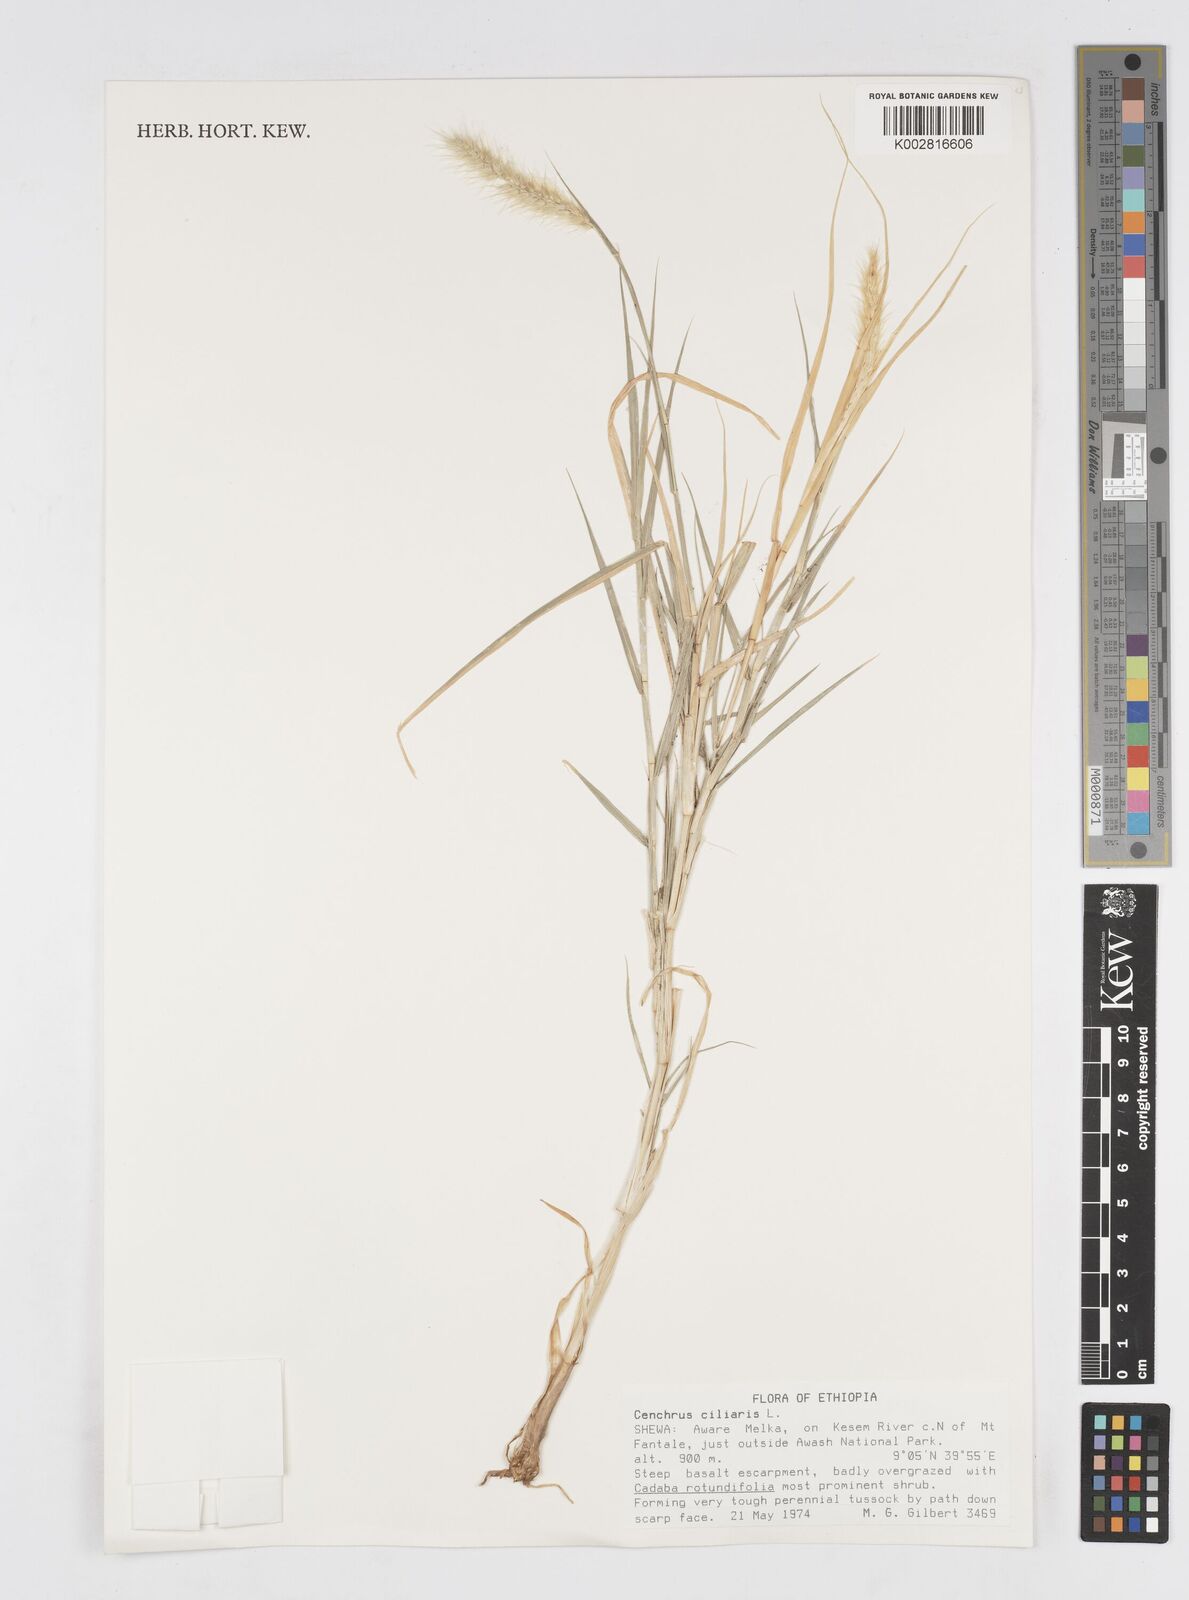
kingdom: Plantae
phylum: Tracheophyta
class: Liliopsida
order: Poales
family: Poaceae
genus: Cenchrus
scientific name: Cenchrus ciliaris
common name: Buffelgrass
